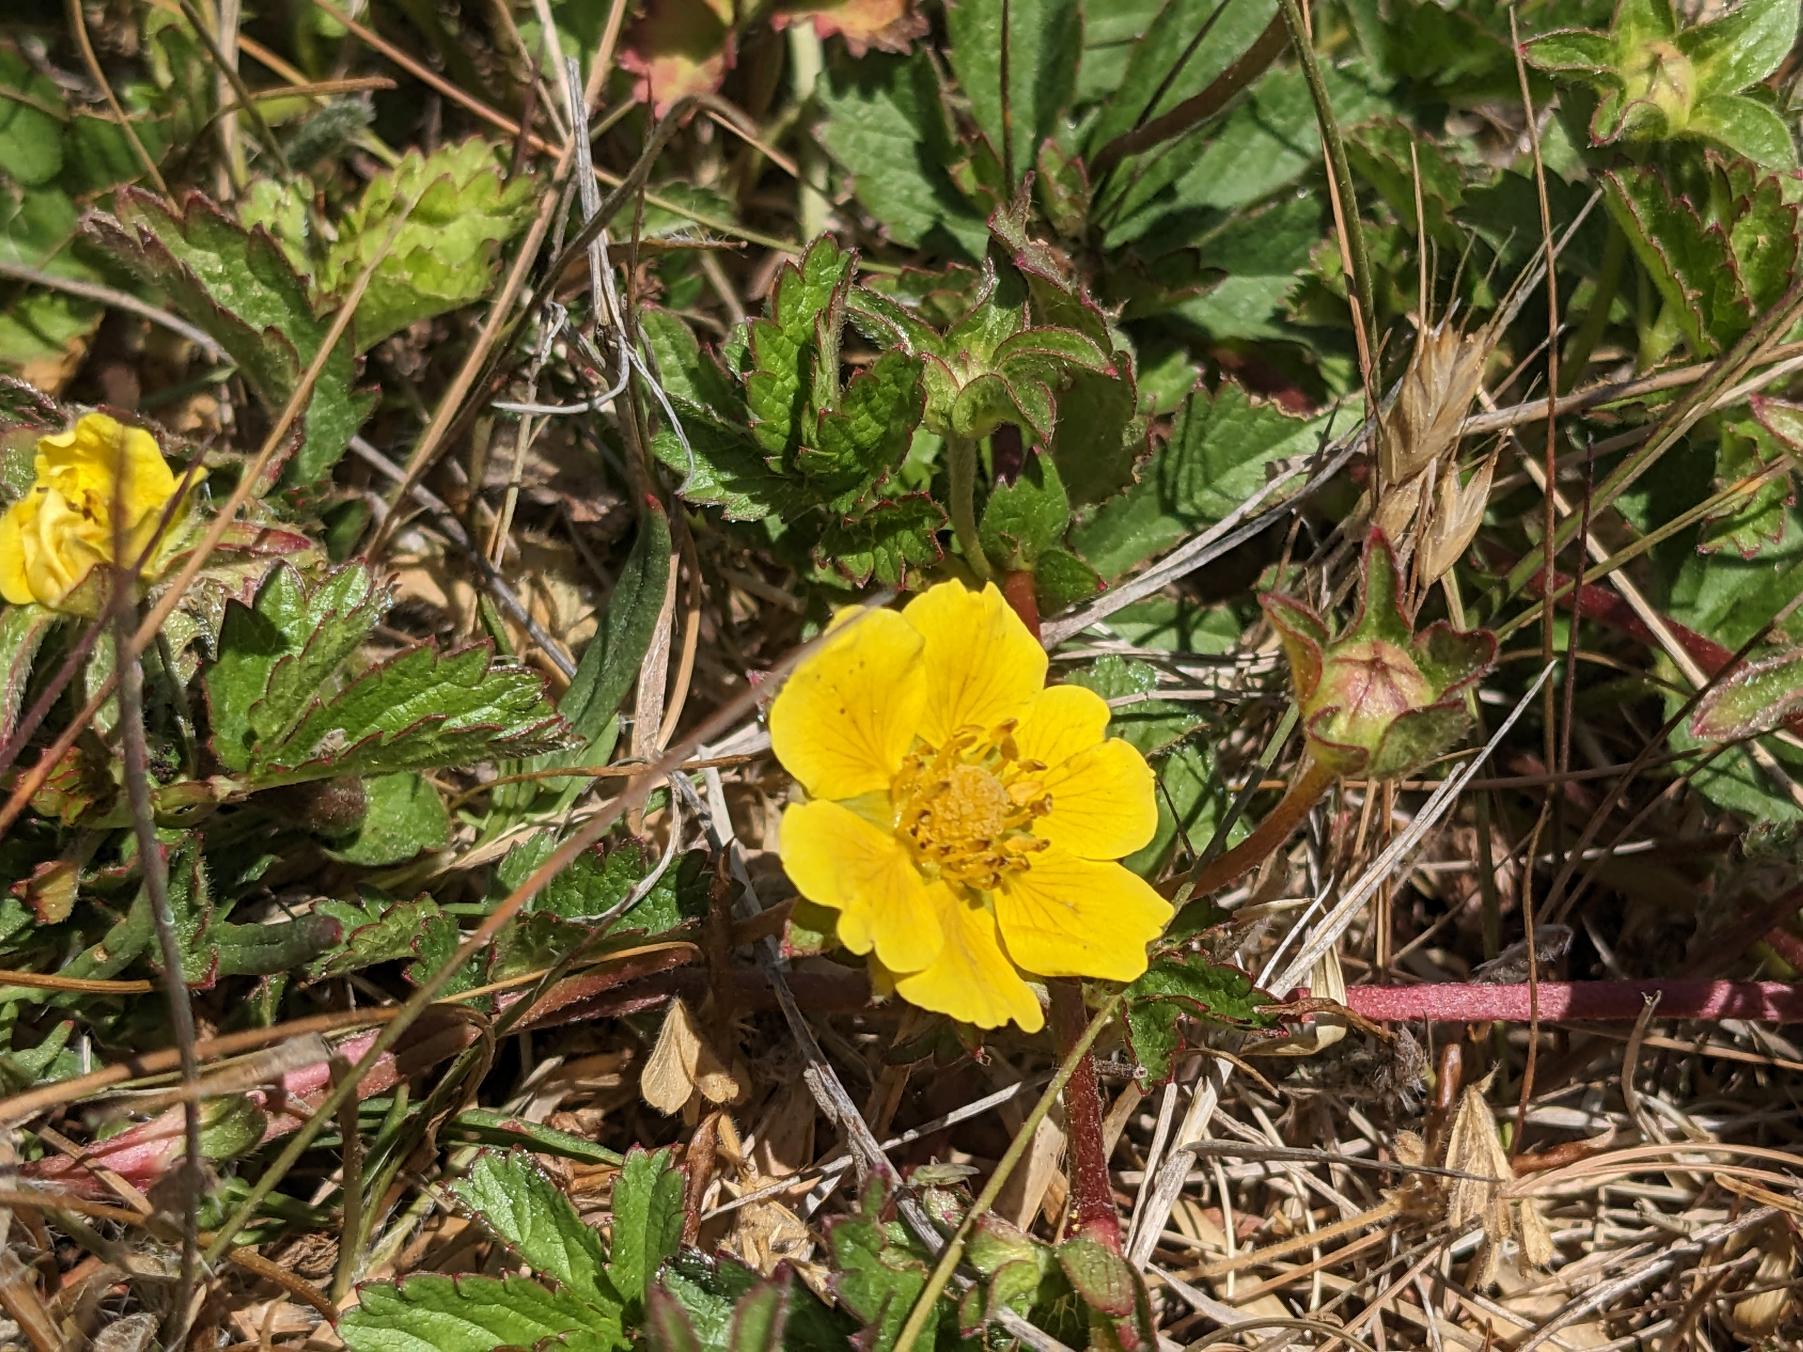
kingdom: Plantae
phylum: Tracheophyta
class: Magnoliopsida
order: Rosales
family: Rosaceae
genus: Potentilla
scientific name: Potentilla reptans
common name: Krybende potentil
